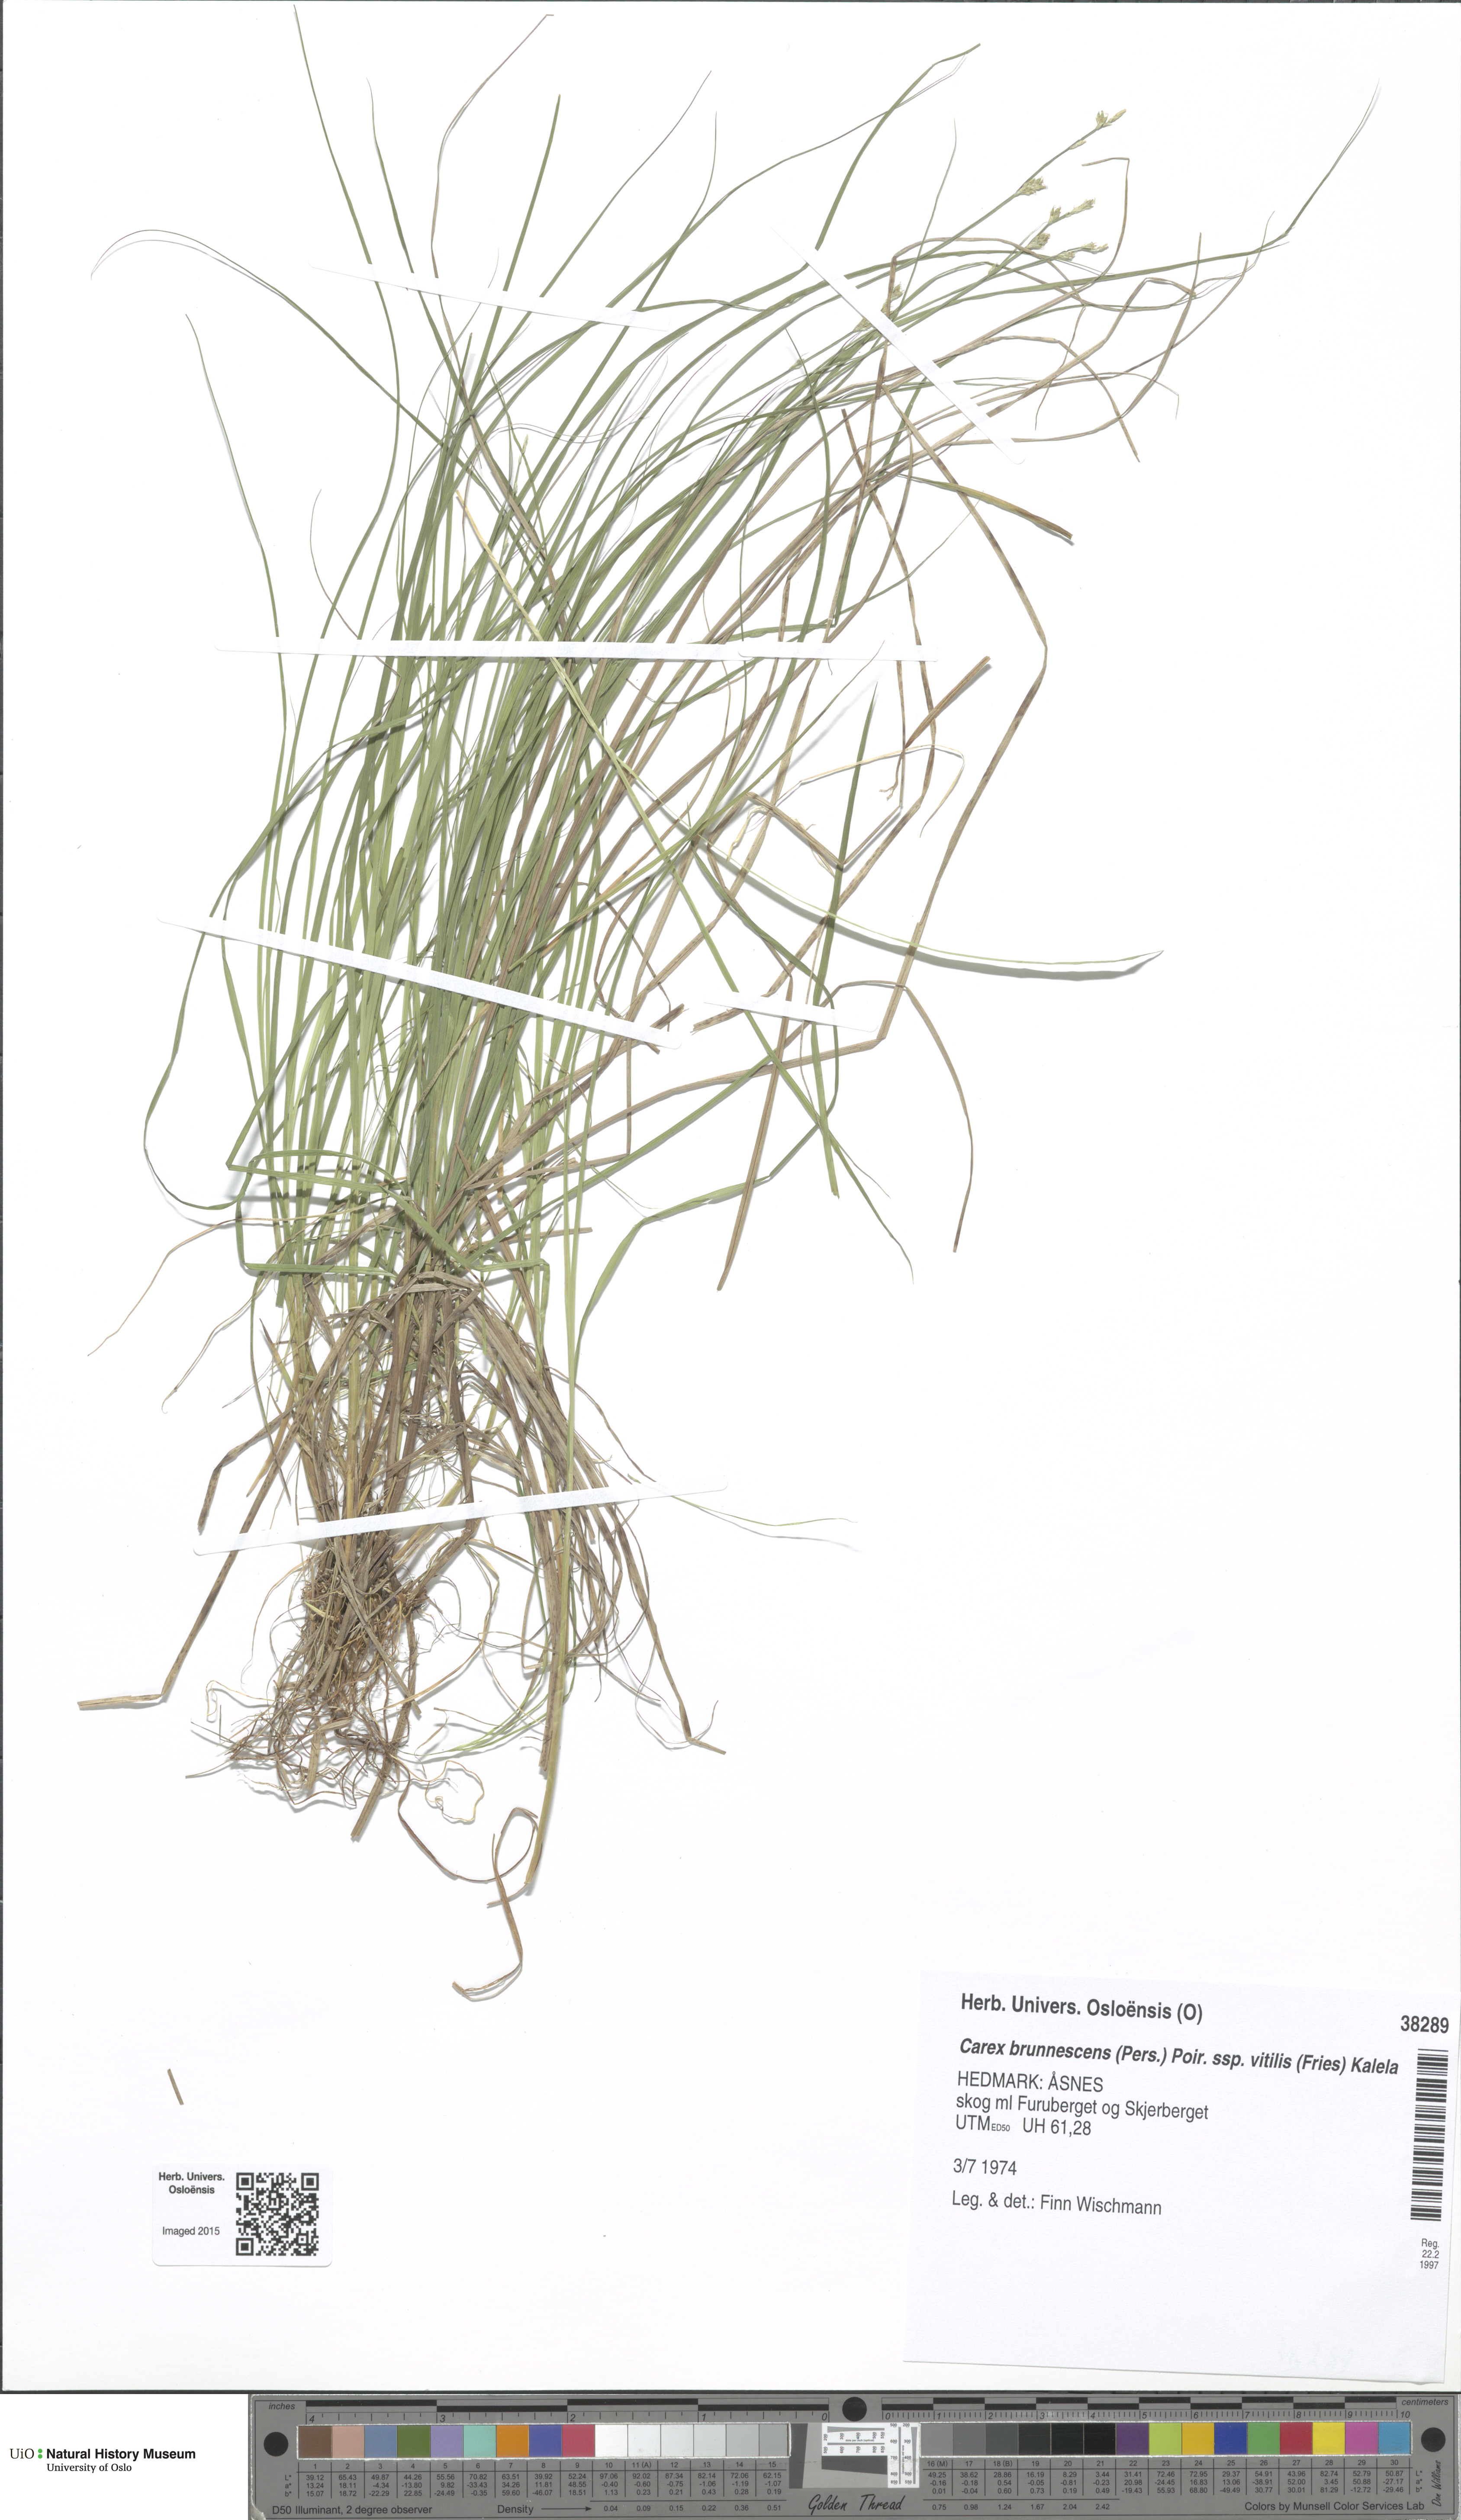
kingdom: Plantae
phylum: Tracheophyta
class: Liliopsida
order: Poales
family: Cyperaceae
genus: Carex
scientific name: Carex brunnescens
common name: Brown sedge
